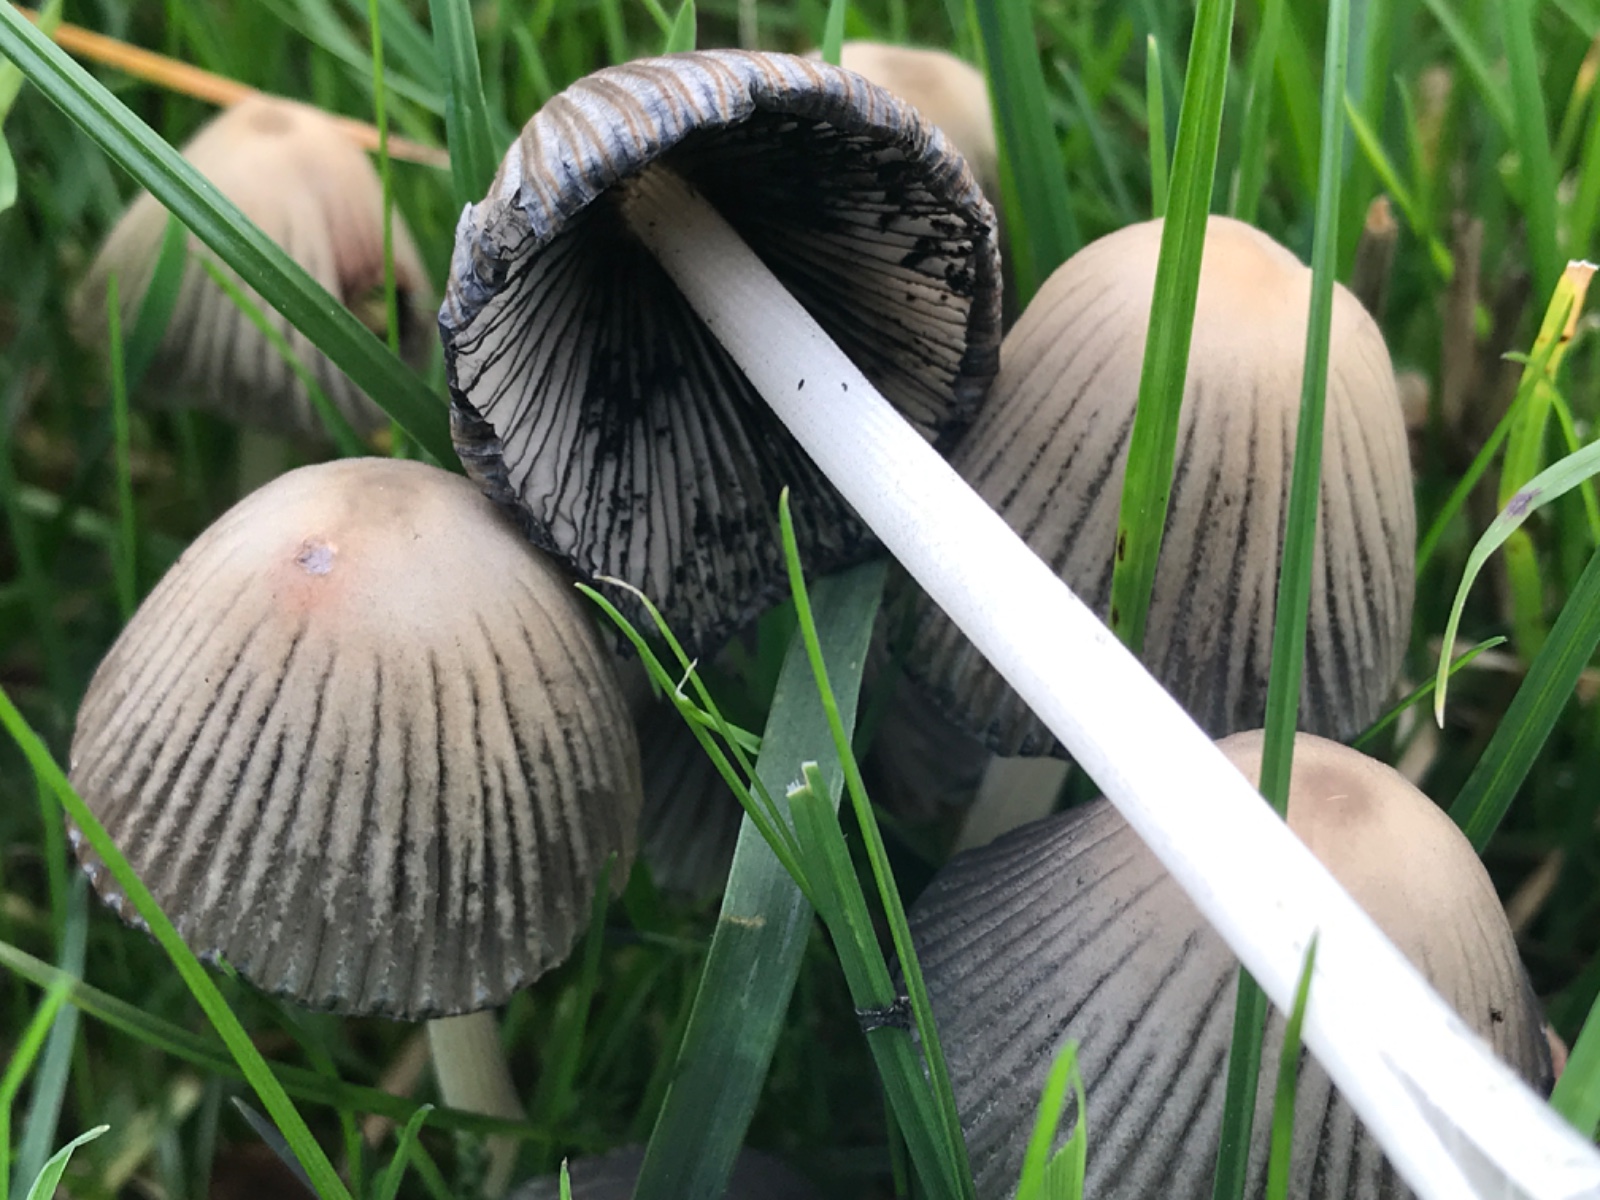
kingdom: Fungi
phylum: Basidiomycota
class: Agaricomycetes
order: Agaricales
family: Psathyrellaceae
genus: Coprinellus
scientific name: Coprinellus
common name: blækhat
